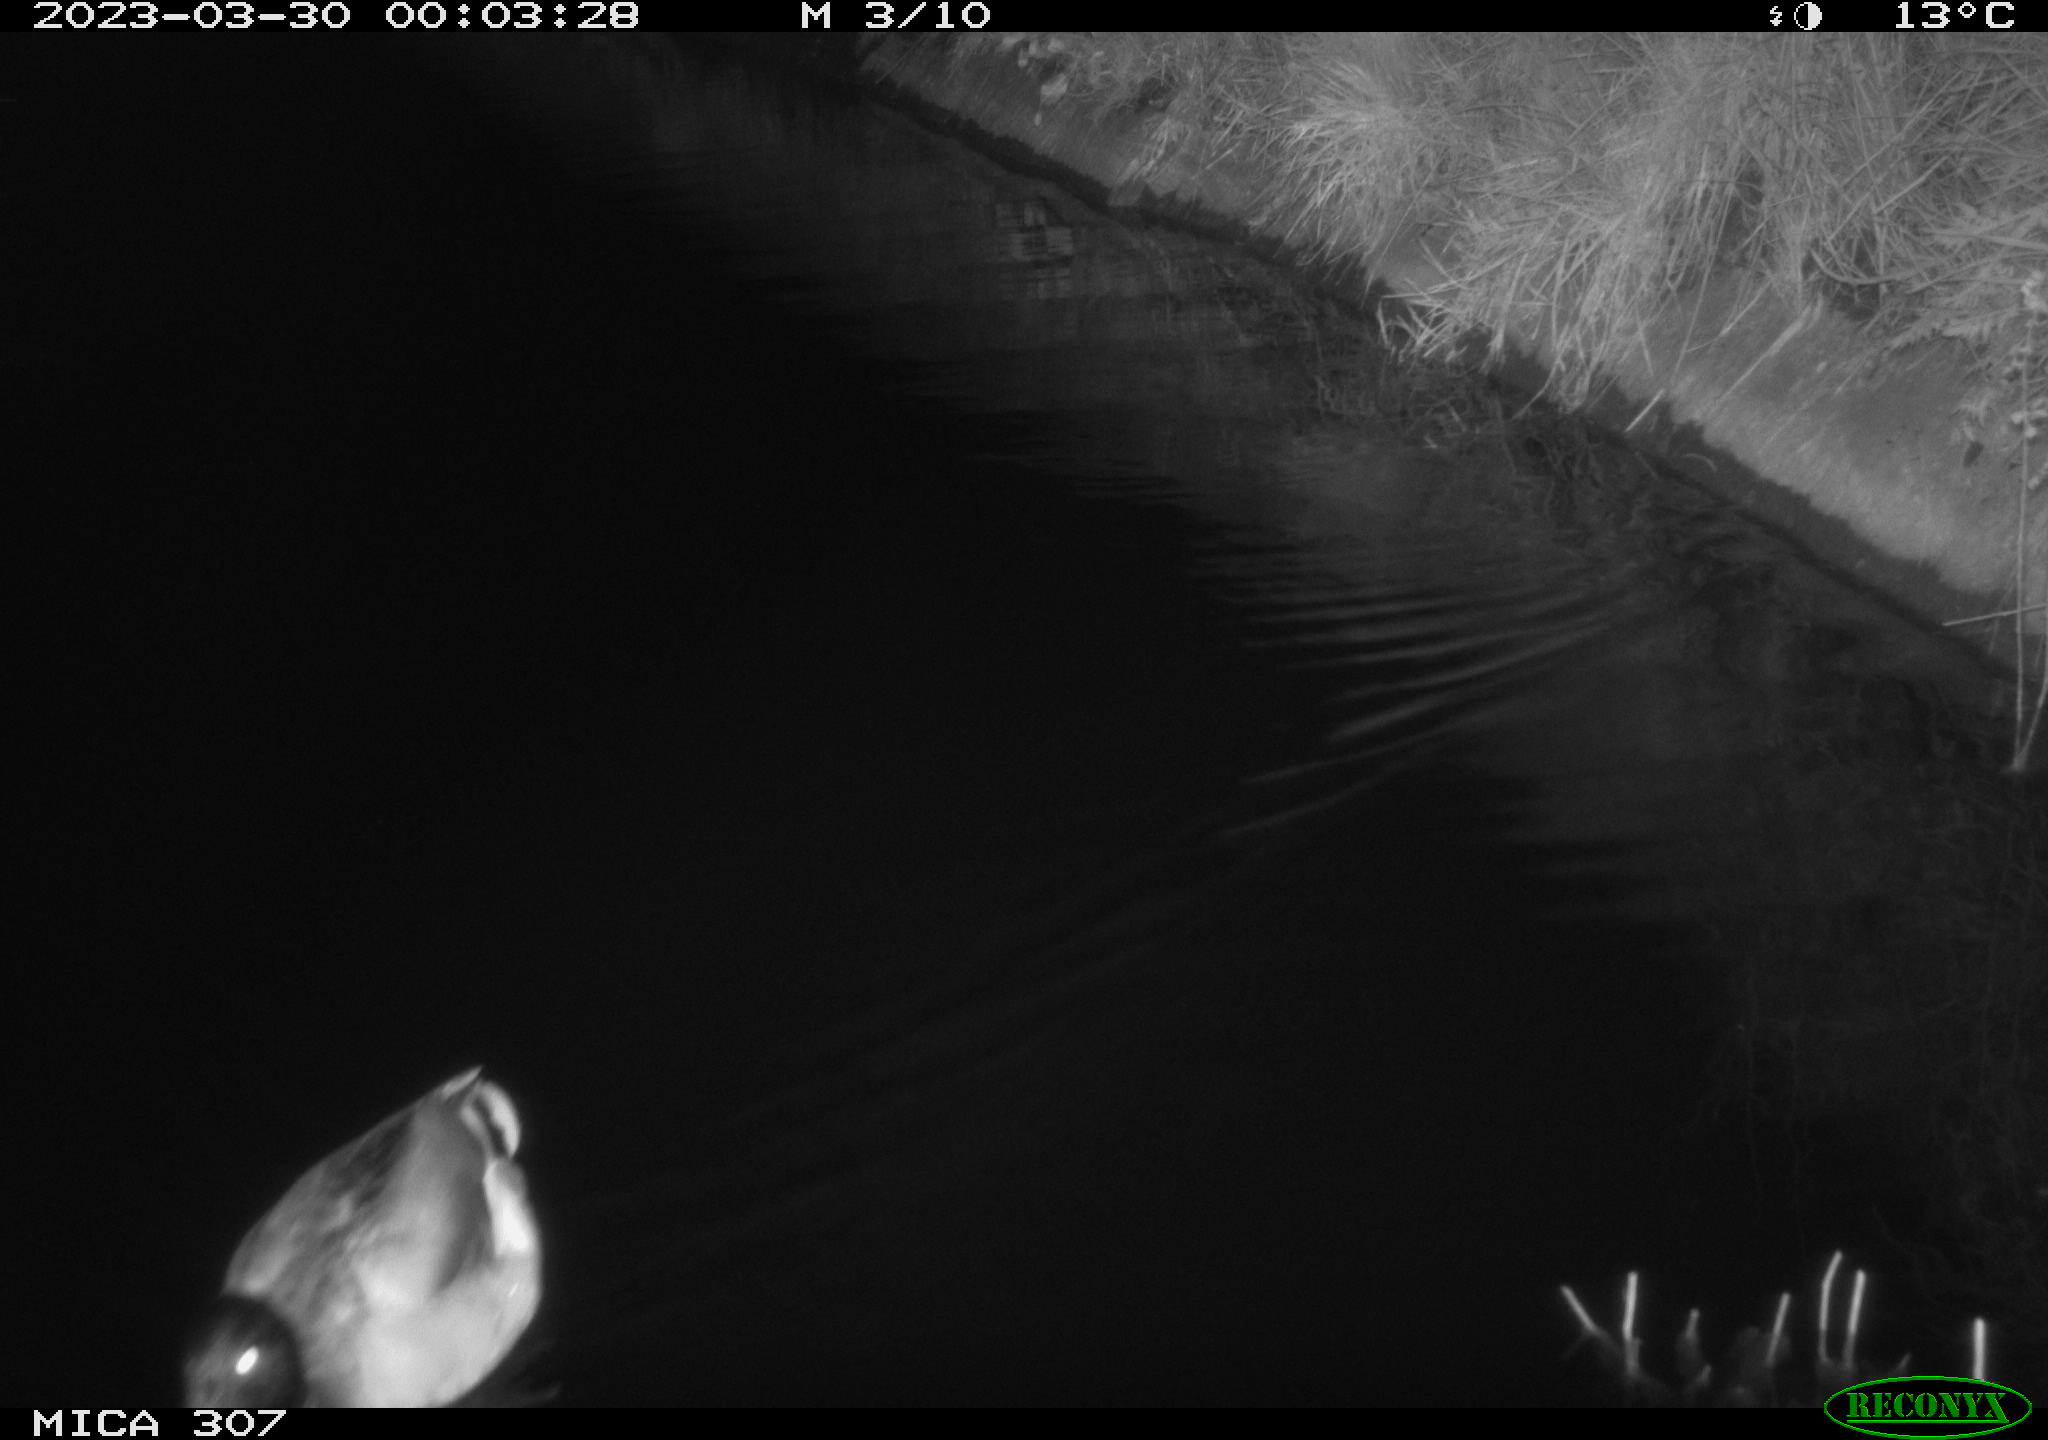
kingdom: Animalia
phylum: Chordata
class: Aves
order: Anseriformes
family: Anatidae
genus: Anas
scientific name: Anas
